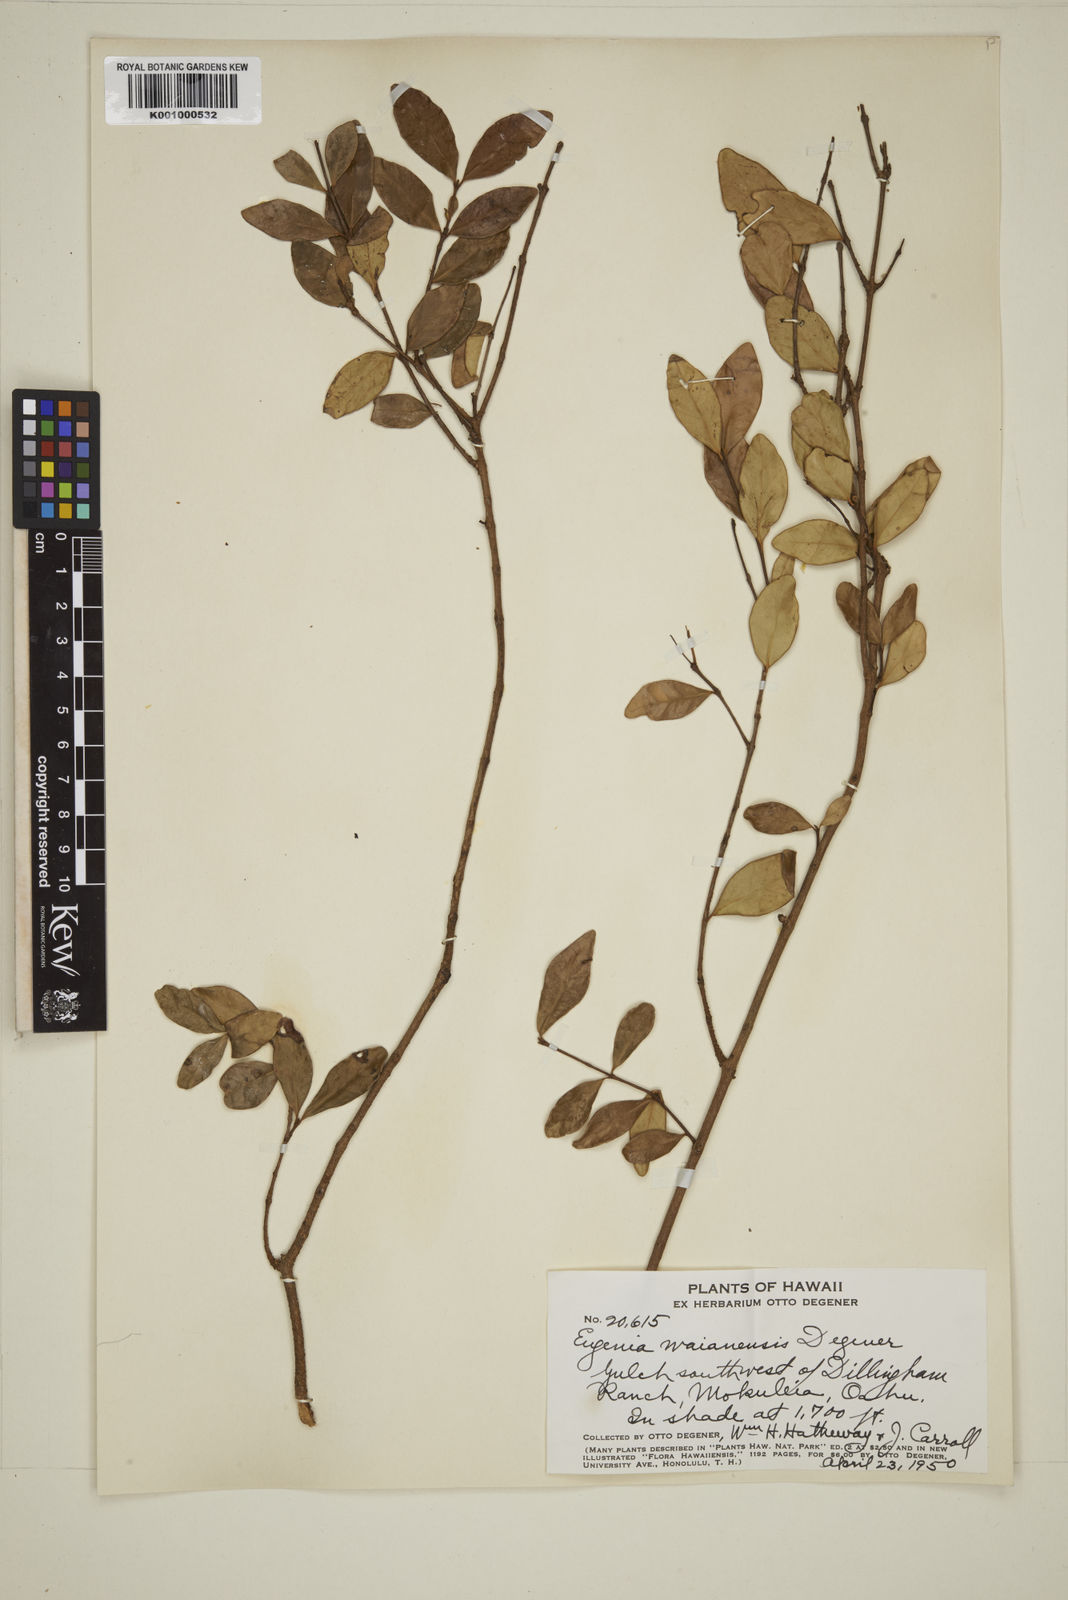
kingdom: Plantae
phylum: Tracheophyta
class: Magnoliopsida
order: Myrtales
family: Myrtaceae
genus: Eugenia
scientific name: Eugenia reinwardtiana
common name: Cedar bay-cherry
